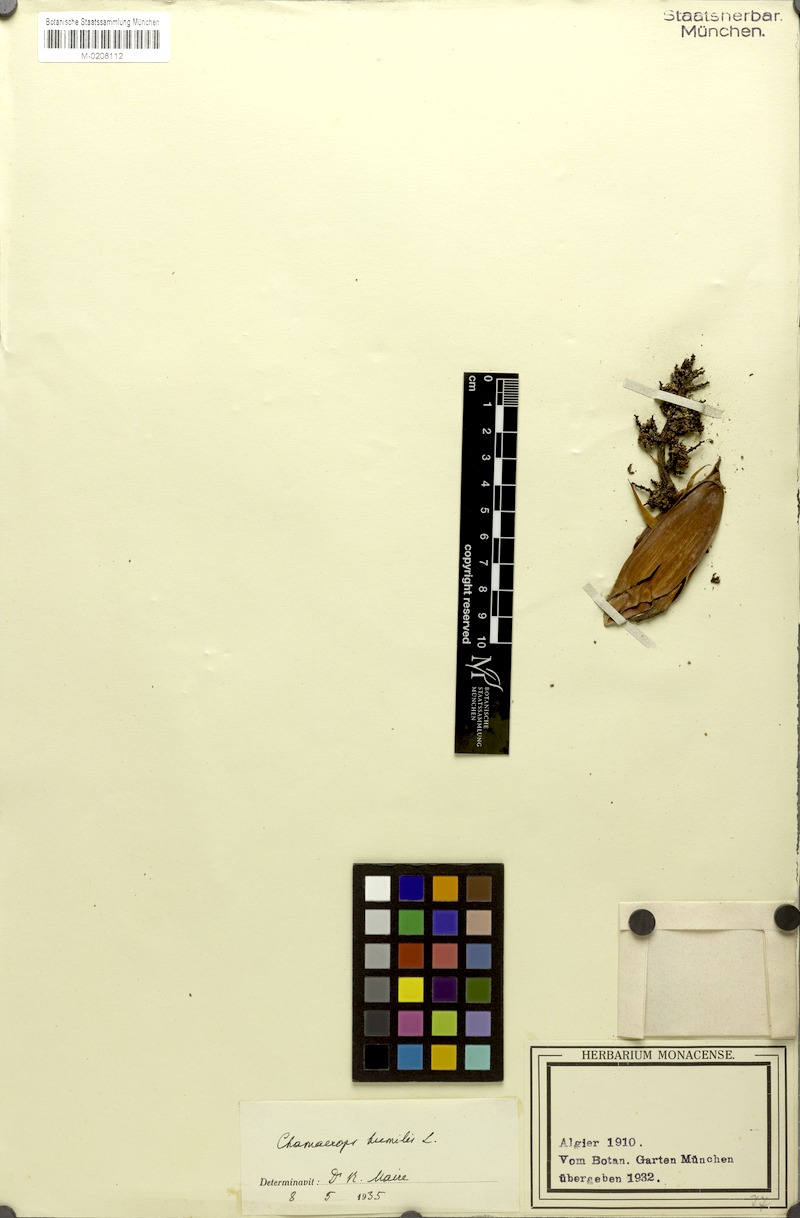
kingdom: Plantae
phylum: Tracheophyta
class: Liliopsida
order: Arecales
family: Arecaceae
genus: Chamaerops
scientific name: Chamaerops humilis
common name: Dwarf fan palm
